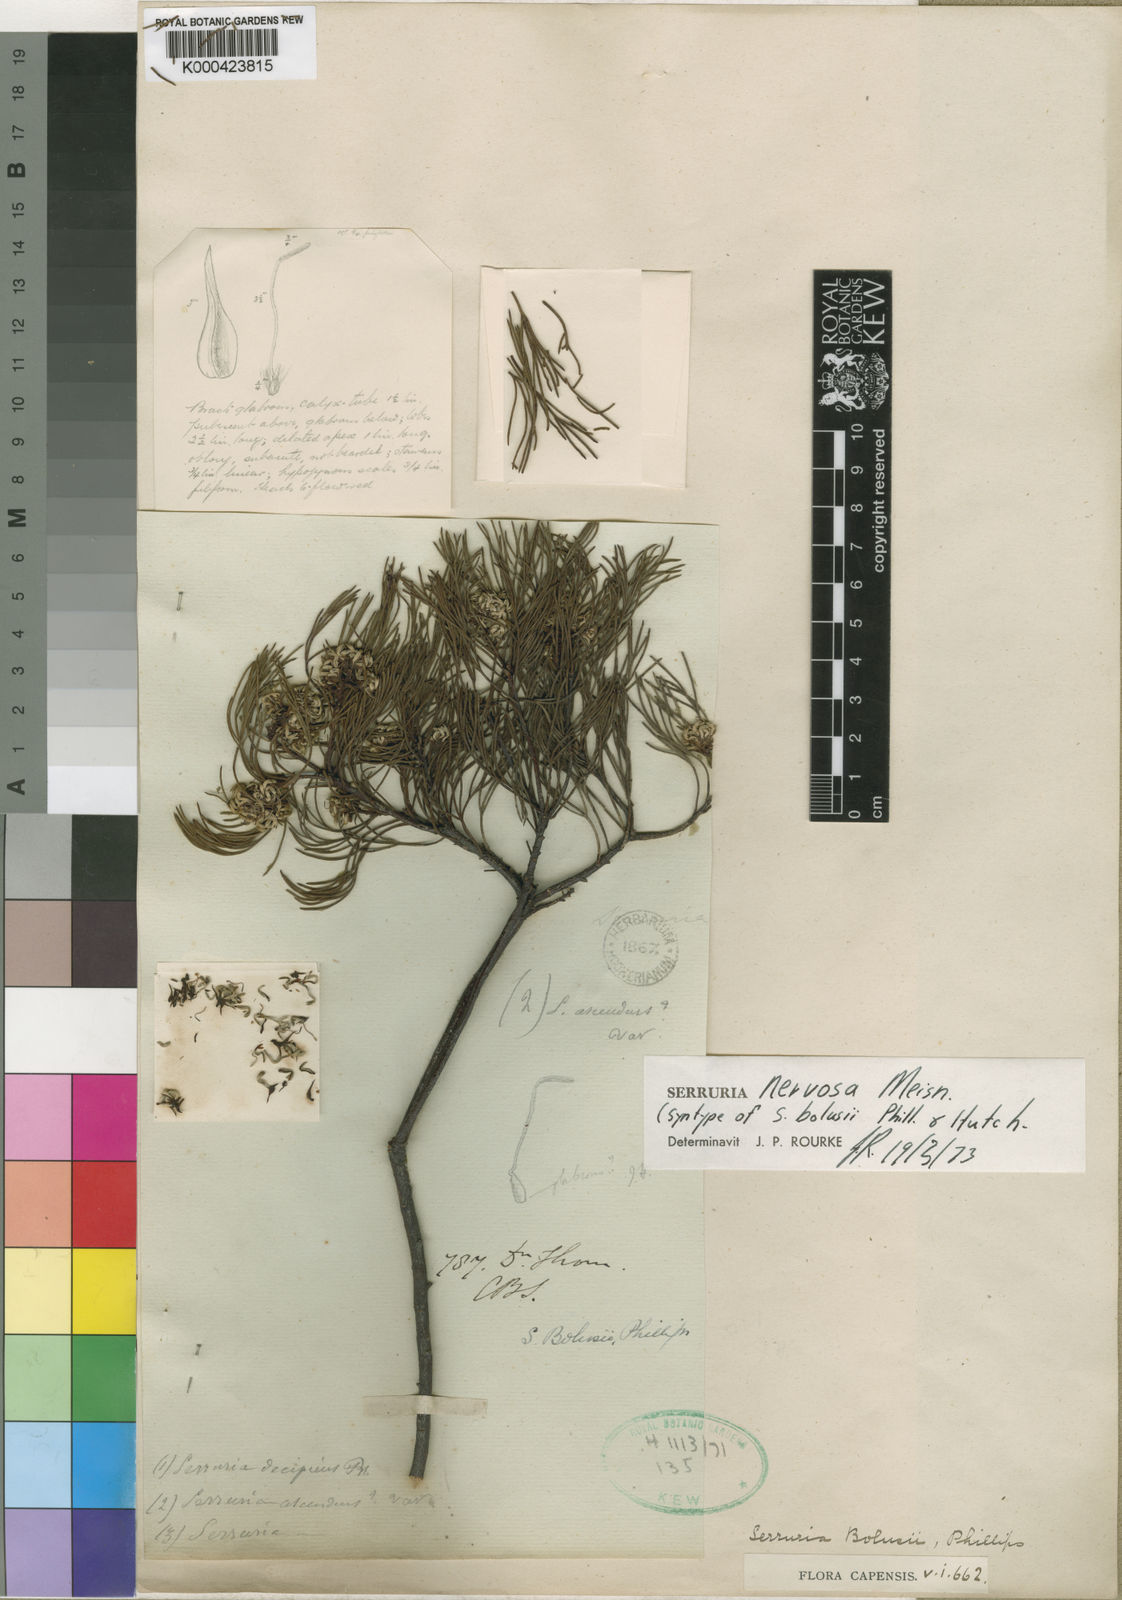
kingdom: Plantae
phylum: Tracheophyta
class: Magnoliopsida
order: Proteales
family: Proteaceae
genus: Serruria
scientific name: Serruria bolusii
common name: Agulhas spiderhead
